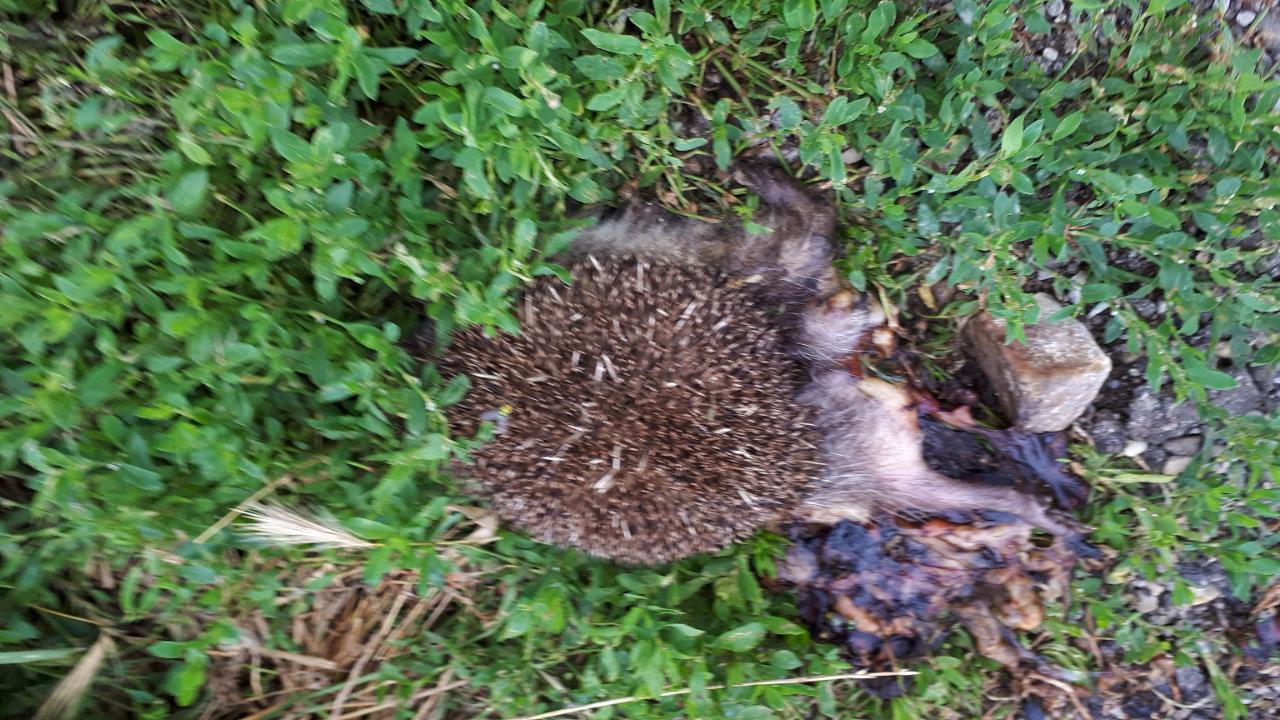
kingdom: Animalia
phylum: Chordata
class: Mammalia
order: Erinaceomorpha
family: Erinaceidae
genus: Erinaceus
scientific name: Erinaceus
